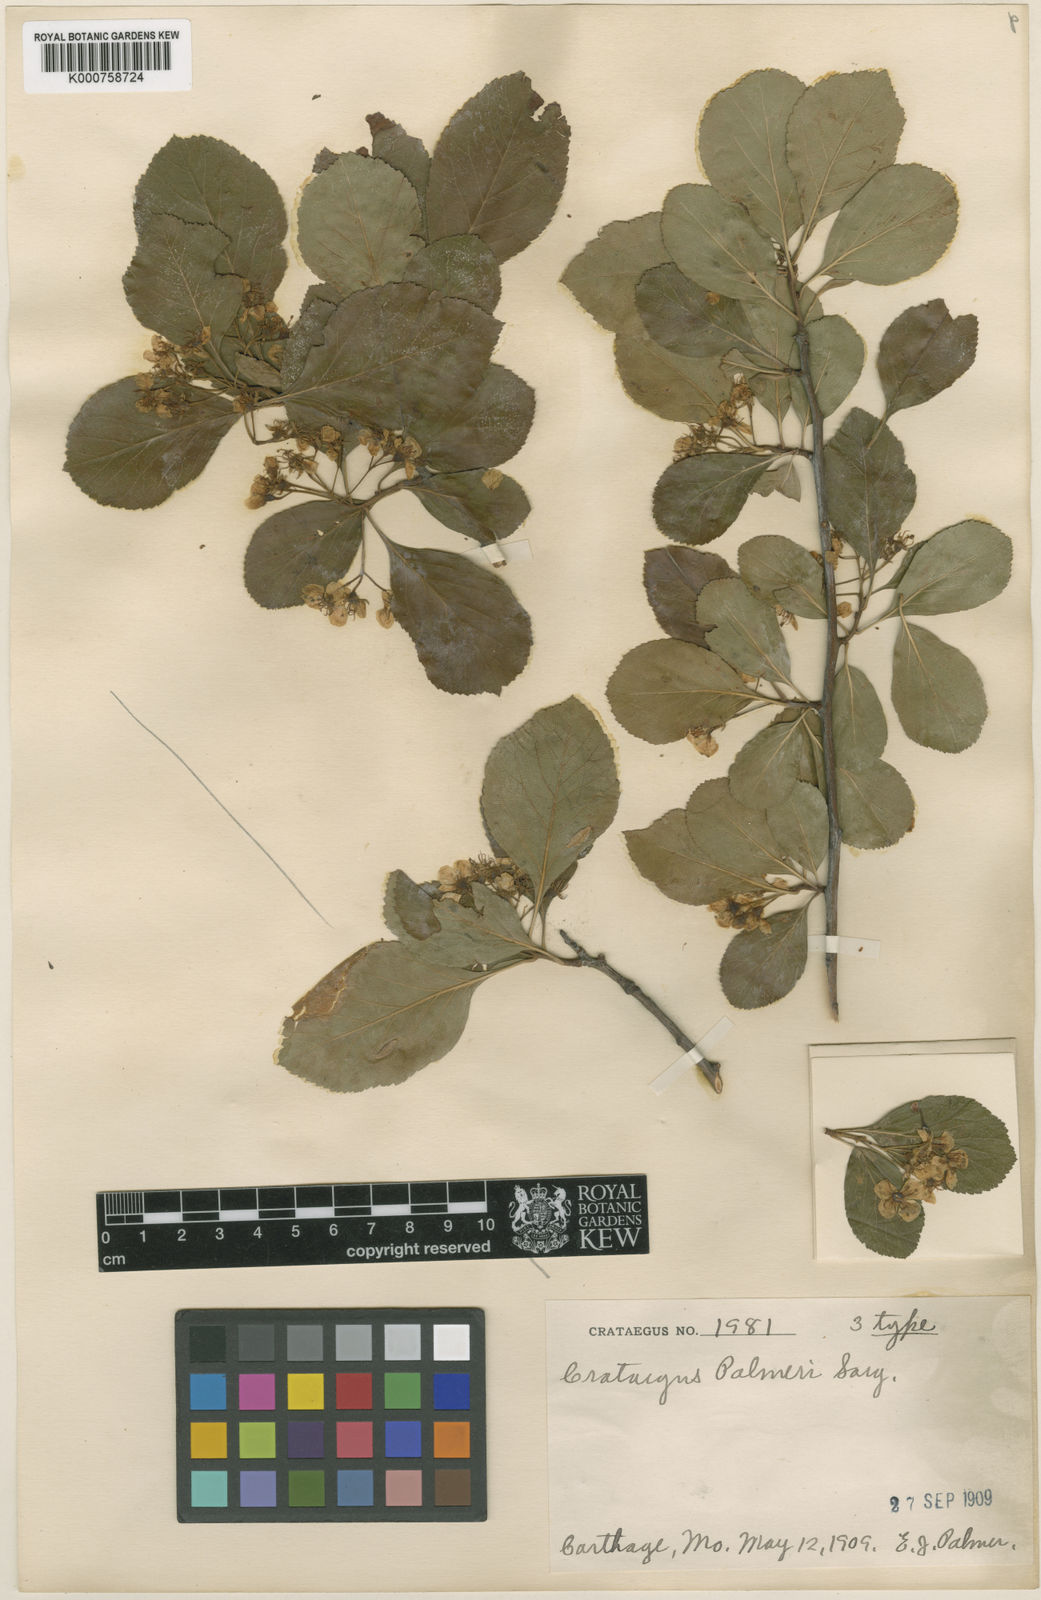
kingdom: Plantae
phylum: Tracheophyta
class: Magnoliopsida
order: Rosales
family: Rosaceae
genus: Crataegus
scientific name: Crataegus reverchonii
